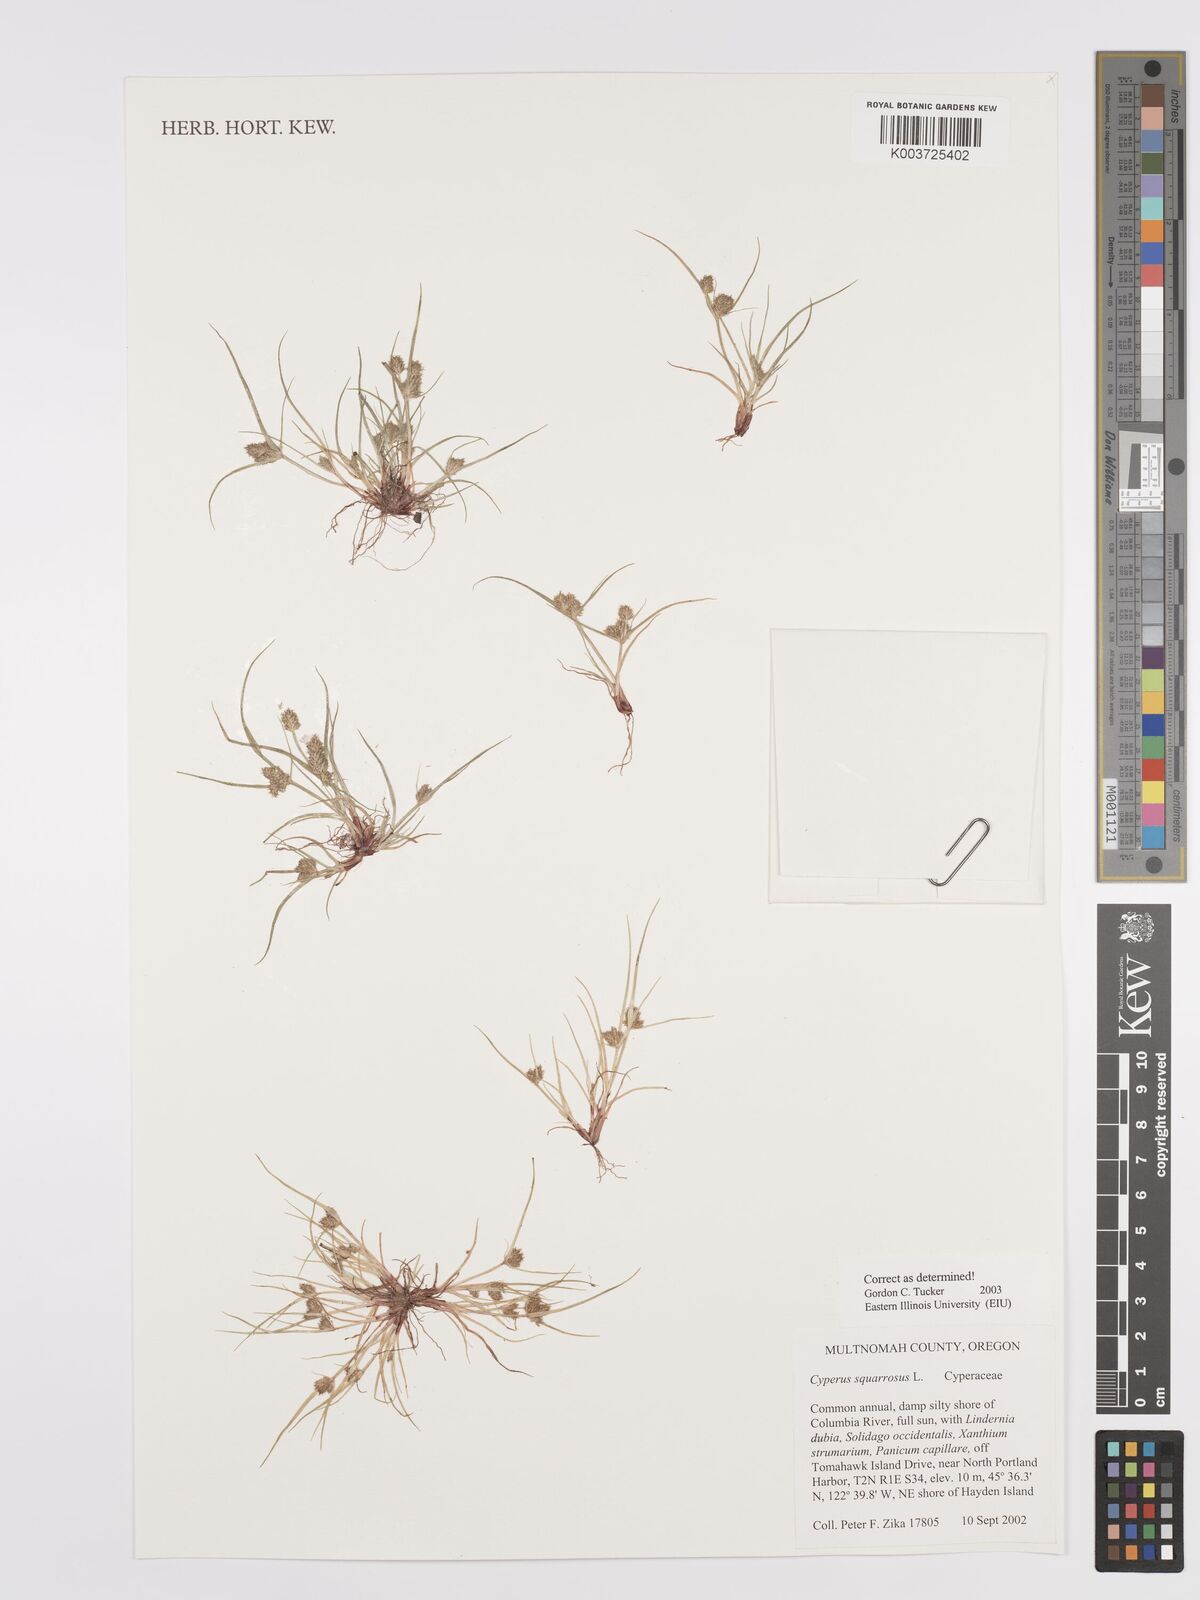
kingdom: Plantae
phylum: Tracheophyta
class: Liliopsida
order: Poales
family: Cyperaceae
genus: Cyperus
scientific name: Cyperus squarrosus
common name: Awned cyperus
